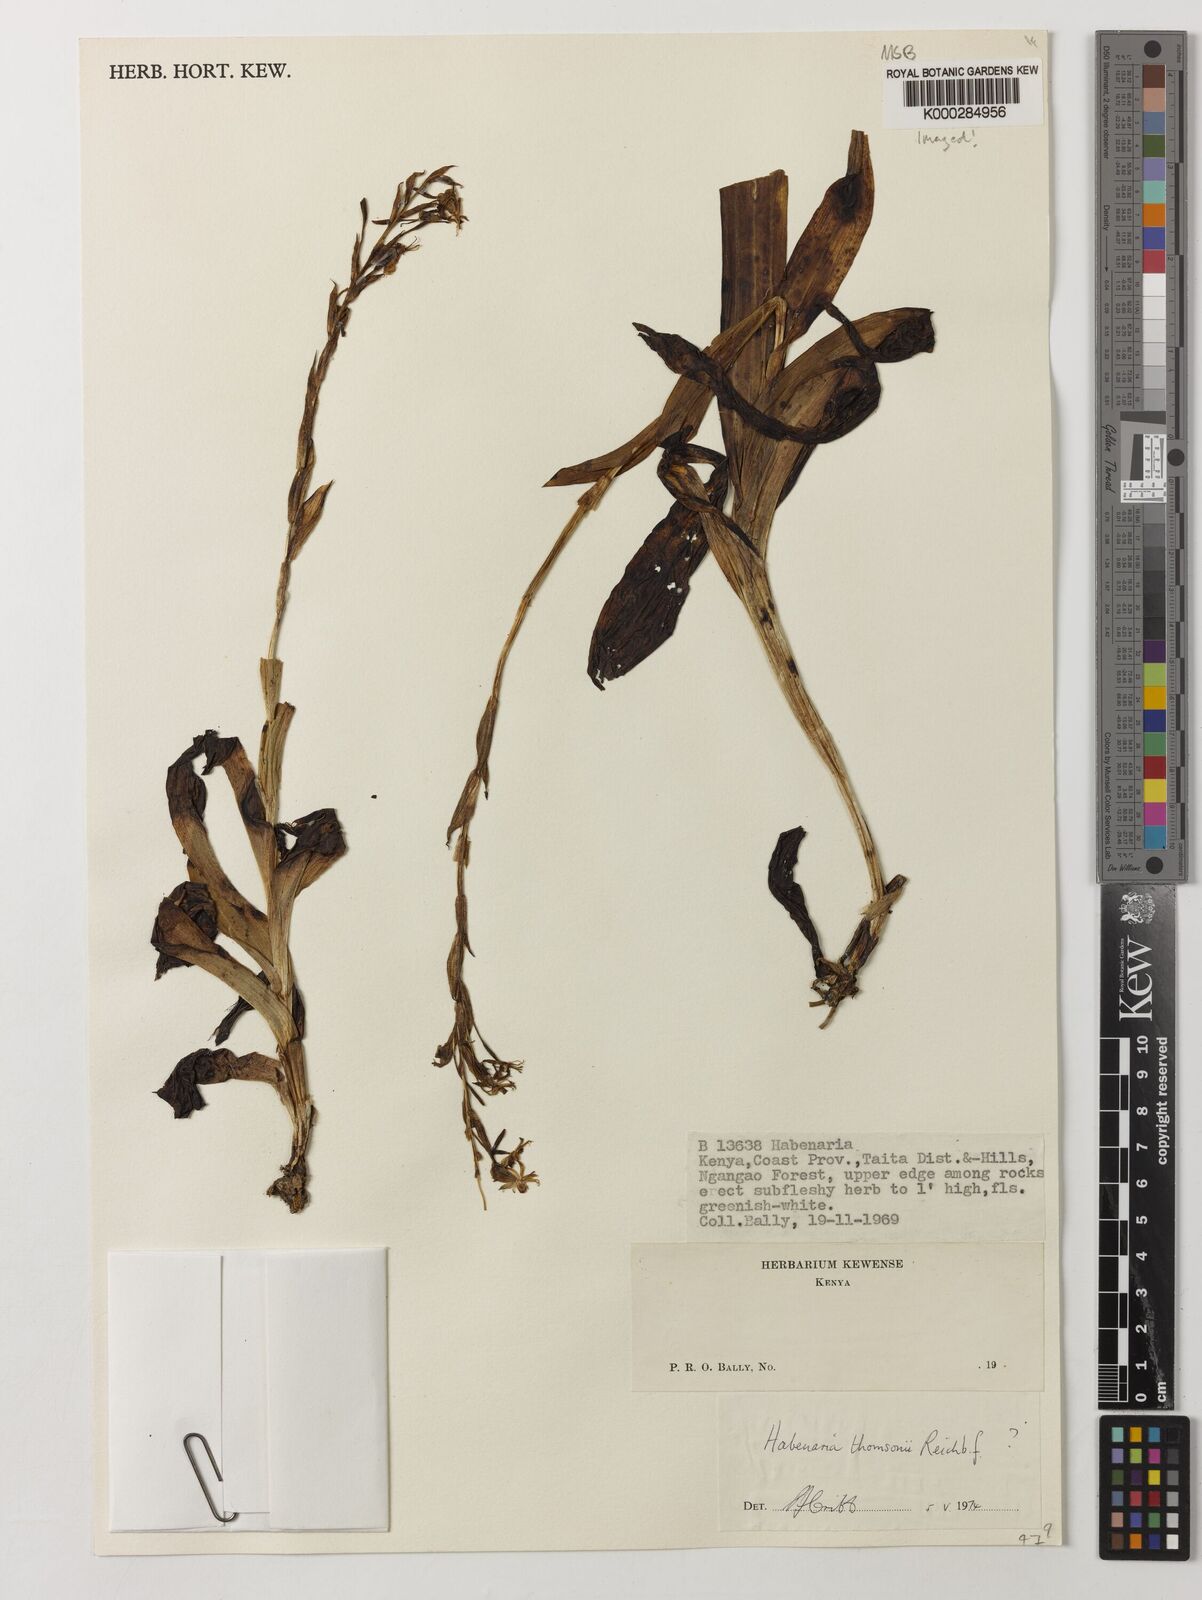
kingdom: Plantae
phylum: Tracheophyta
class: Liliopsida
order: Asparagales
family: Orchidaceae
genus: Habenaria
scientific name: Habenaria thomsonii
